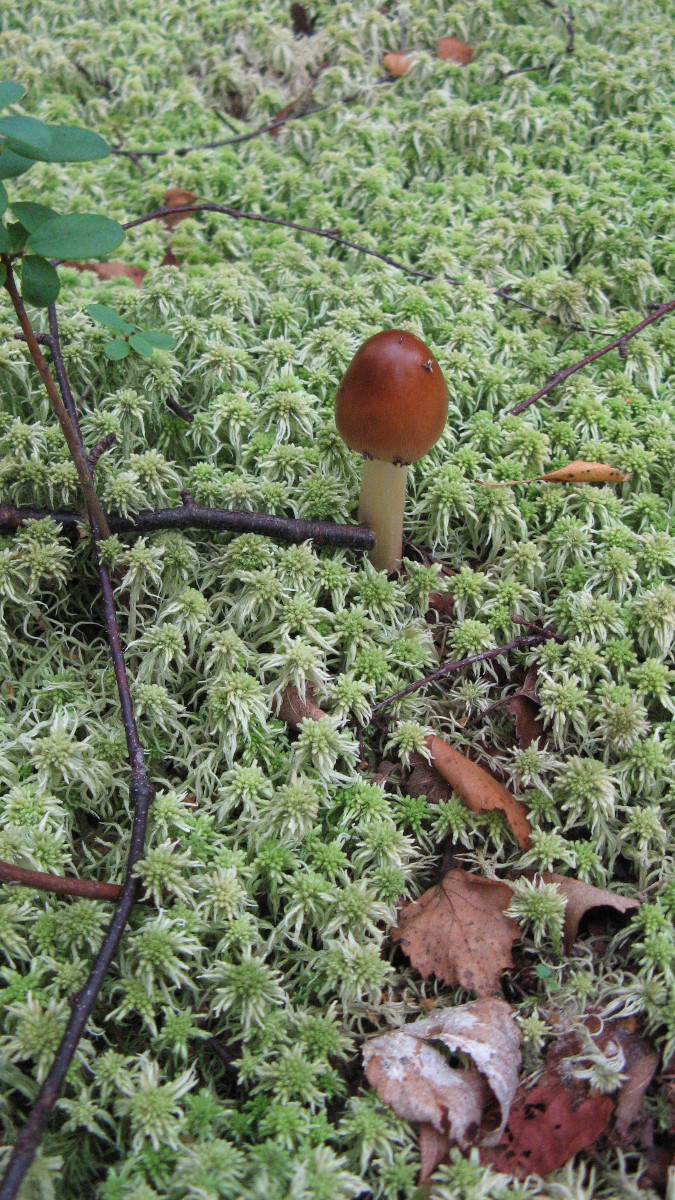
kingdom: Fungi
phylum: Basidiomycota
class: Agaricomycetes
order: Agaricales
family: Amanitaceae
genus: Amanita
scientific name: Amanita fulva
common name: brun kam-fluesvamp
